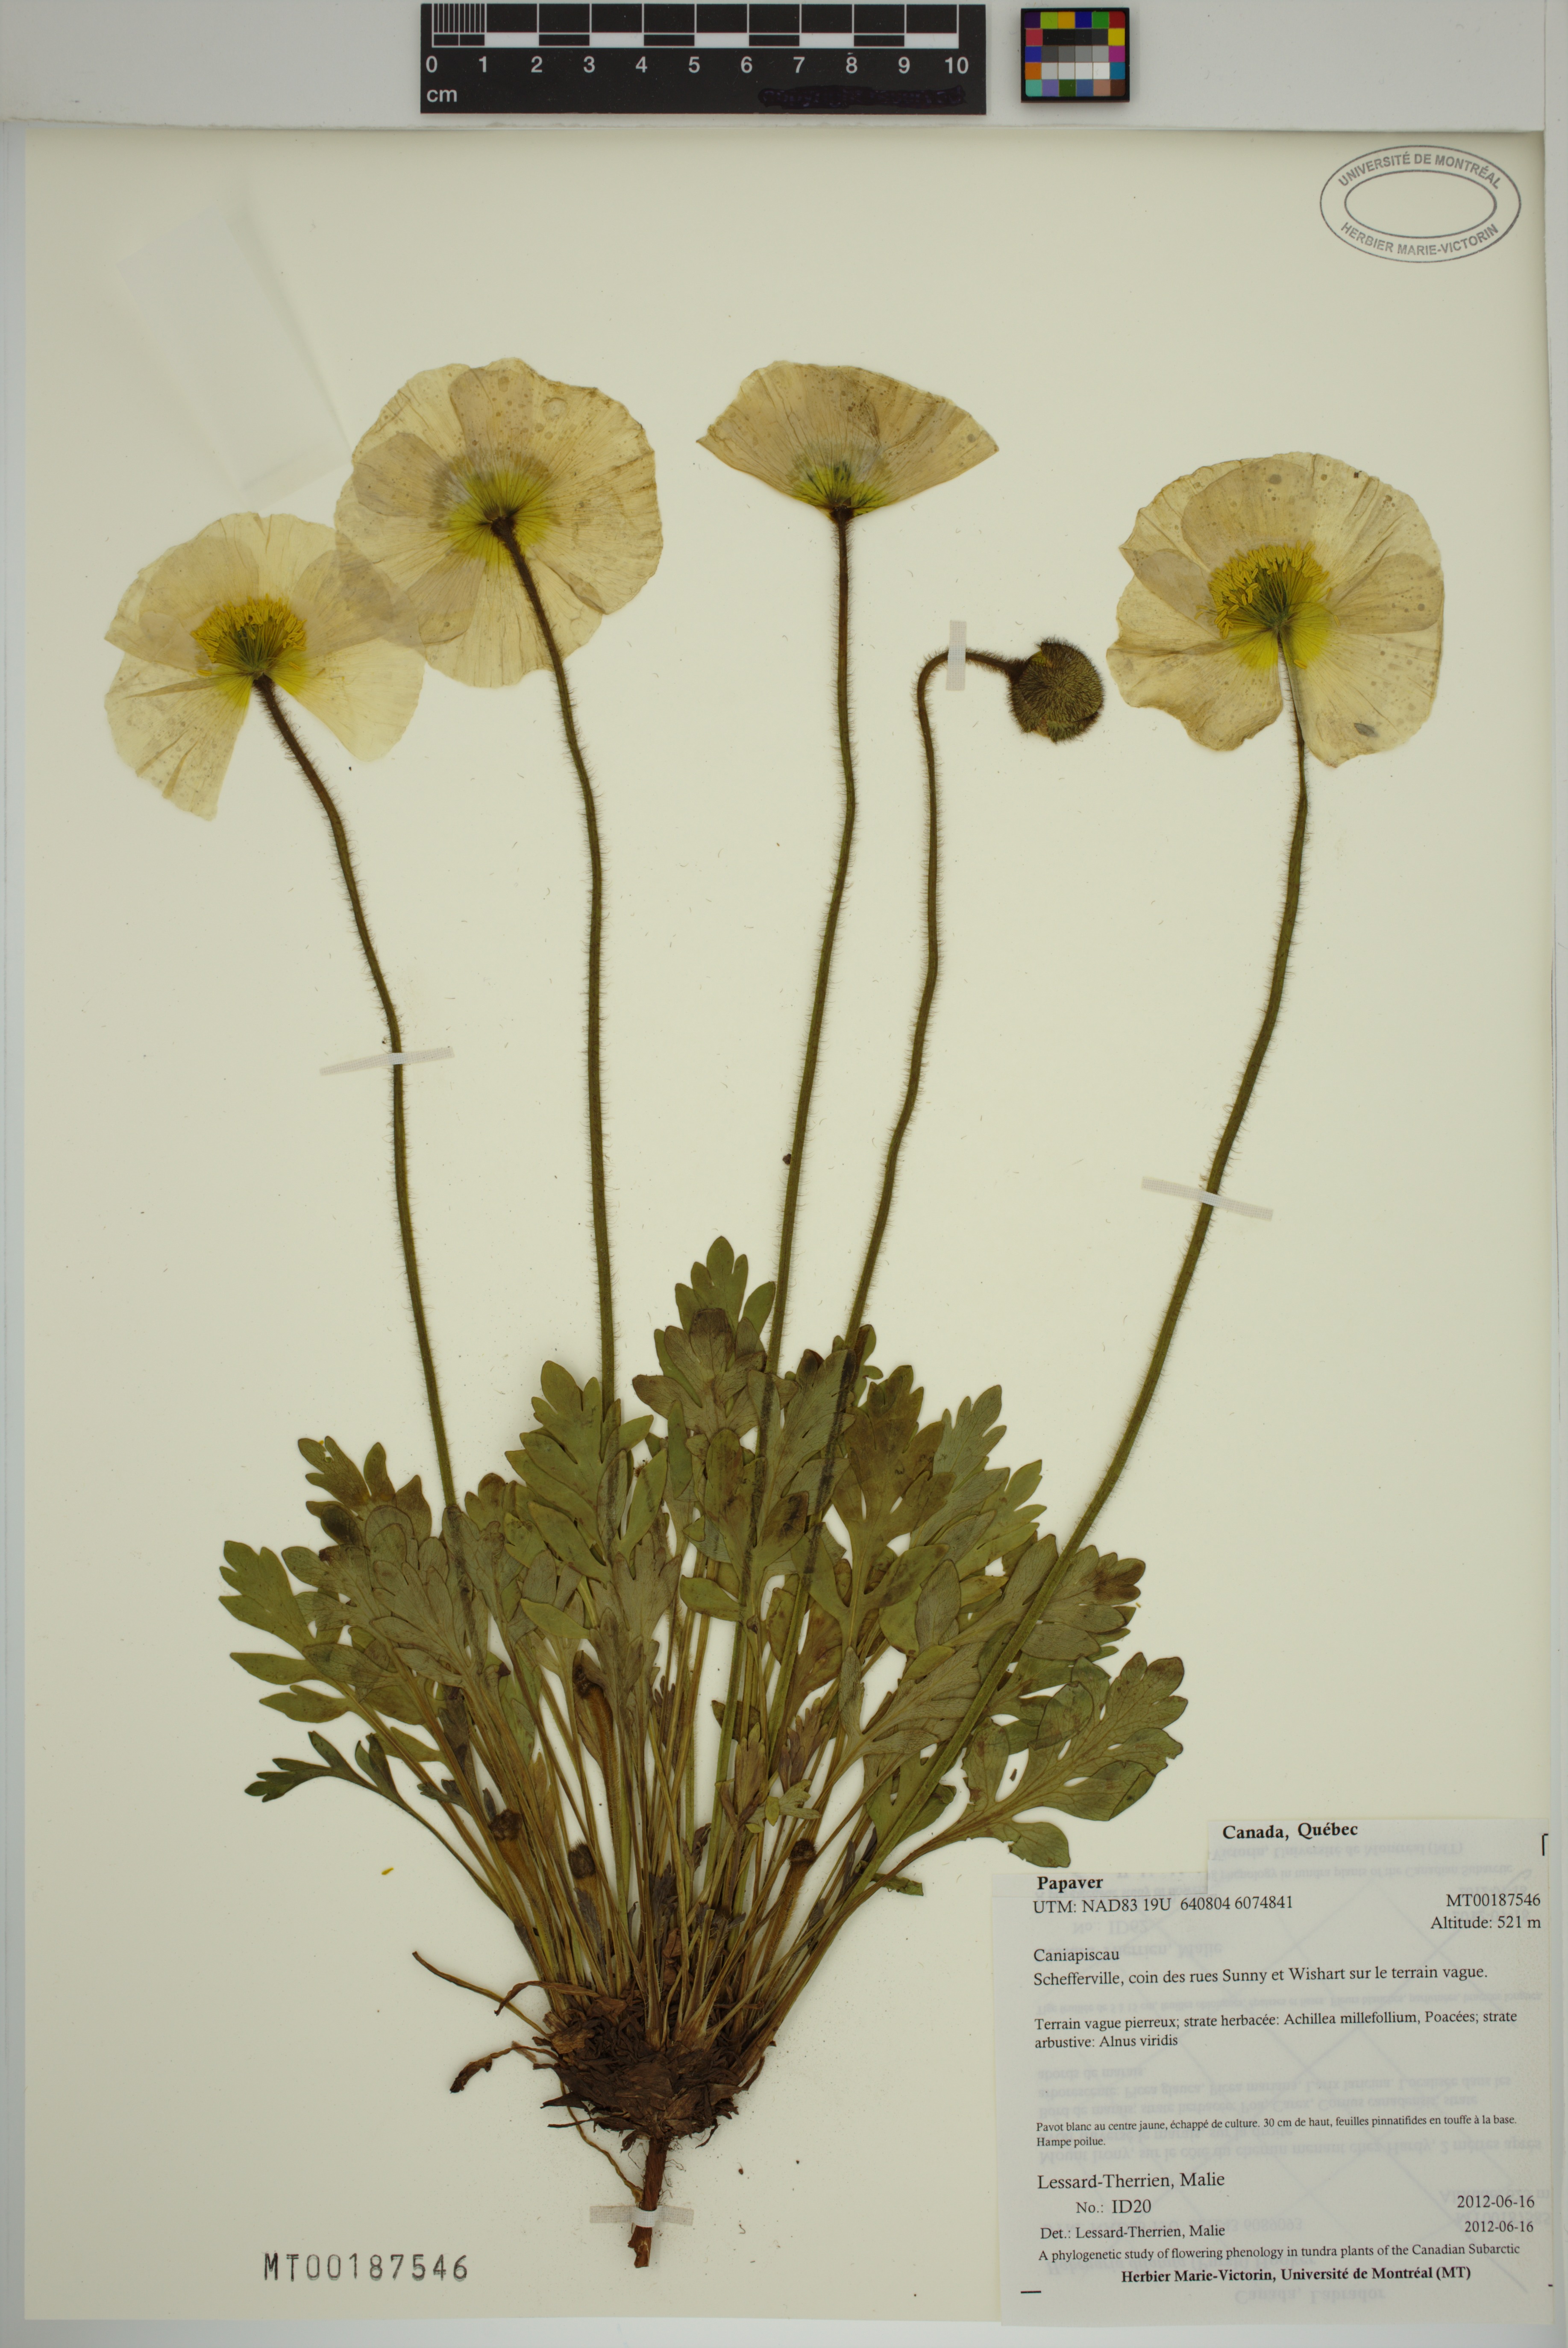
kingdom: Plantae
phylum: Tracheophyta
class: Magnoliopsida
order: Ranunculales
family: Papaveraceae
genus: Papaver
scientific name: Papaver
